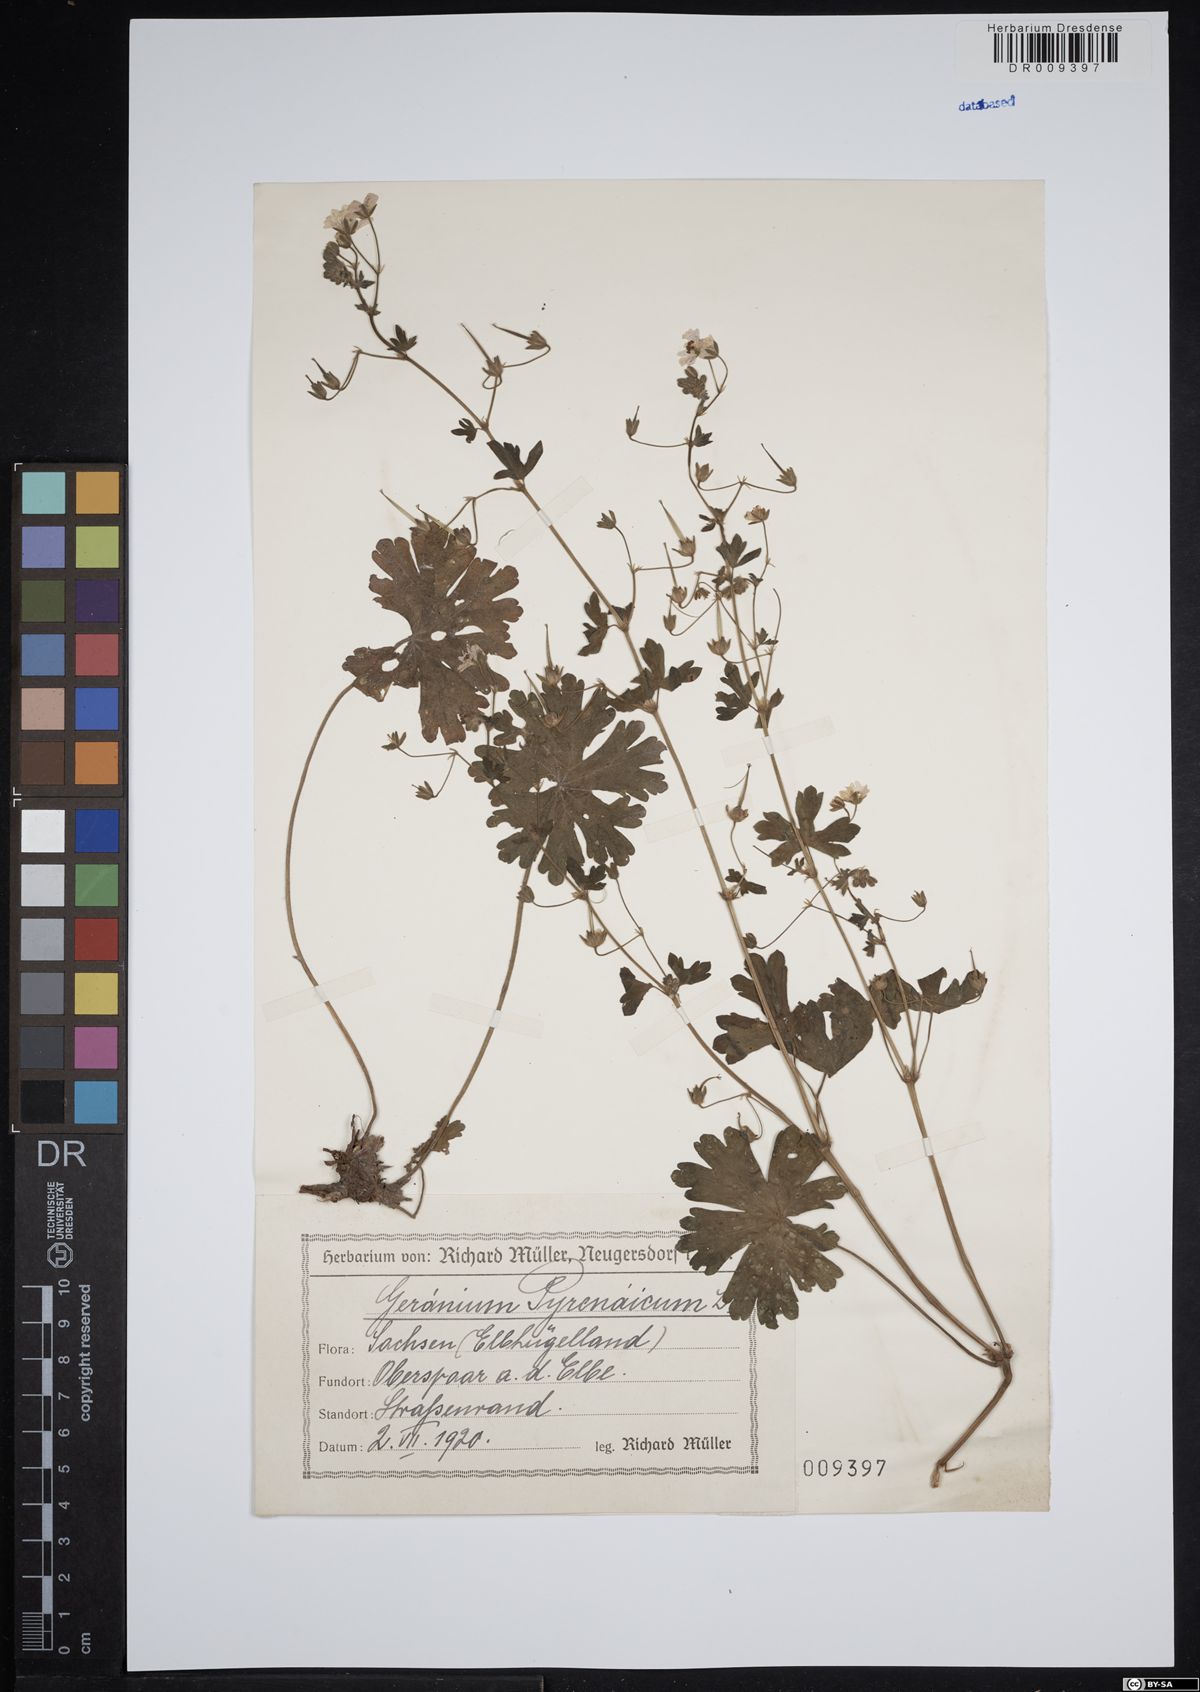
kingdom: Plantae
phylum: Tracheophyta
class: Magnoliopsida
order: Geraniales
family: Geraniaceae
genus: Geranium
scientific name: Geranium pyrenaicum
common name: Hedgerow crane's-bill
